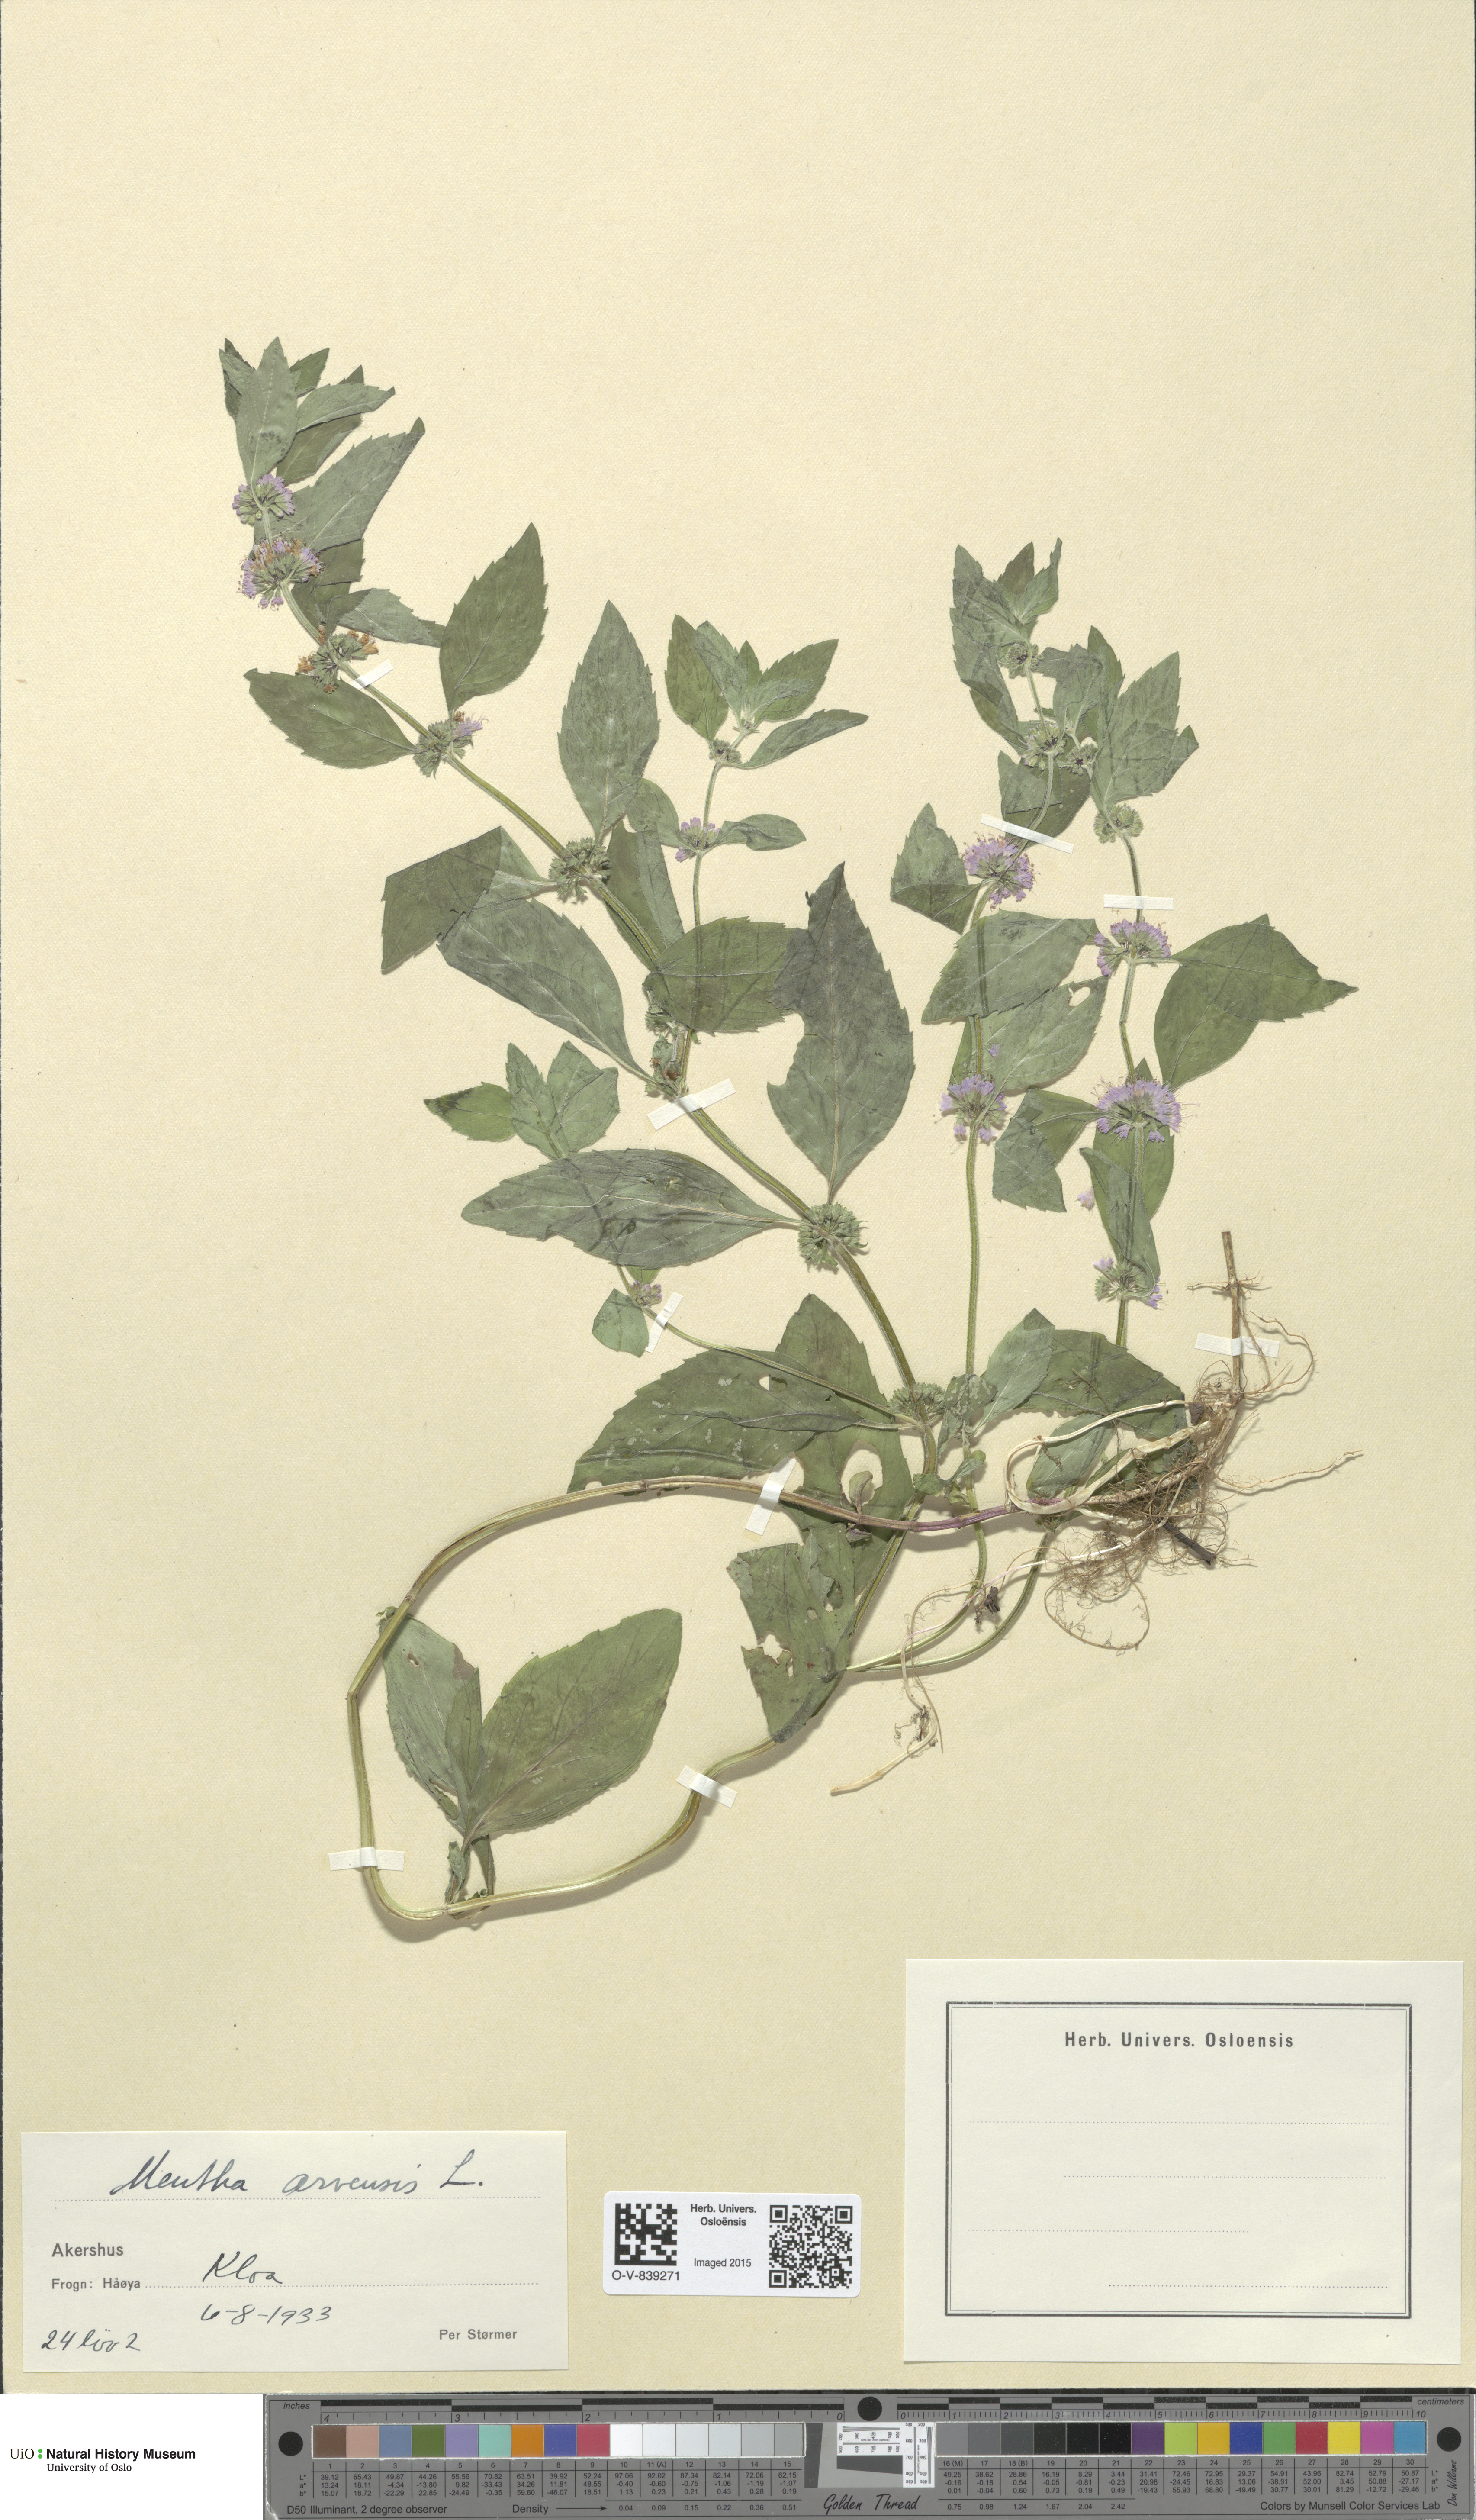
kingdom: Plantae
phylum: Tracheophyta
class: Magnoliopsida
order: Lamiales
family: Lamiaceae
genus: Mentha
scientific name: Mentha arvensis
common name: Corn mint
